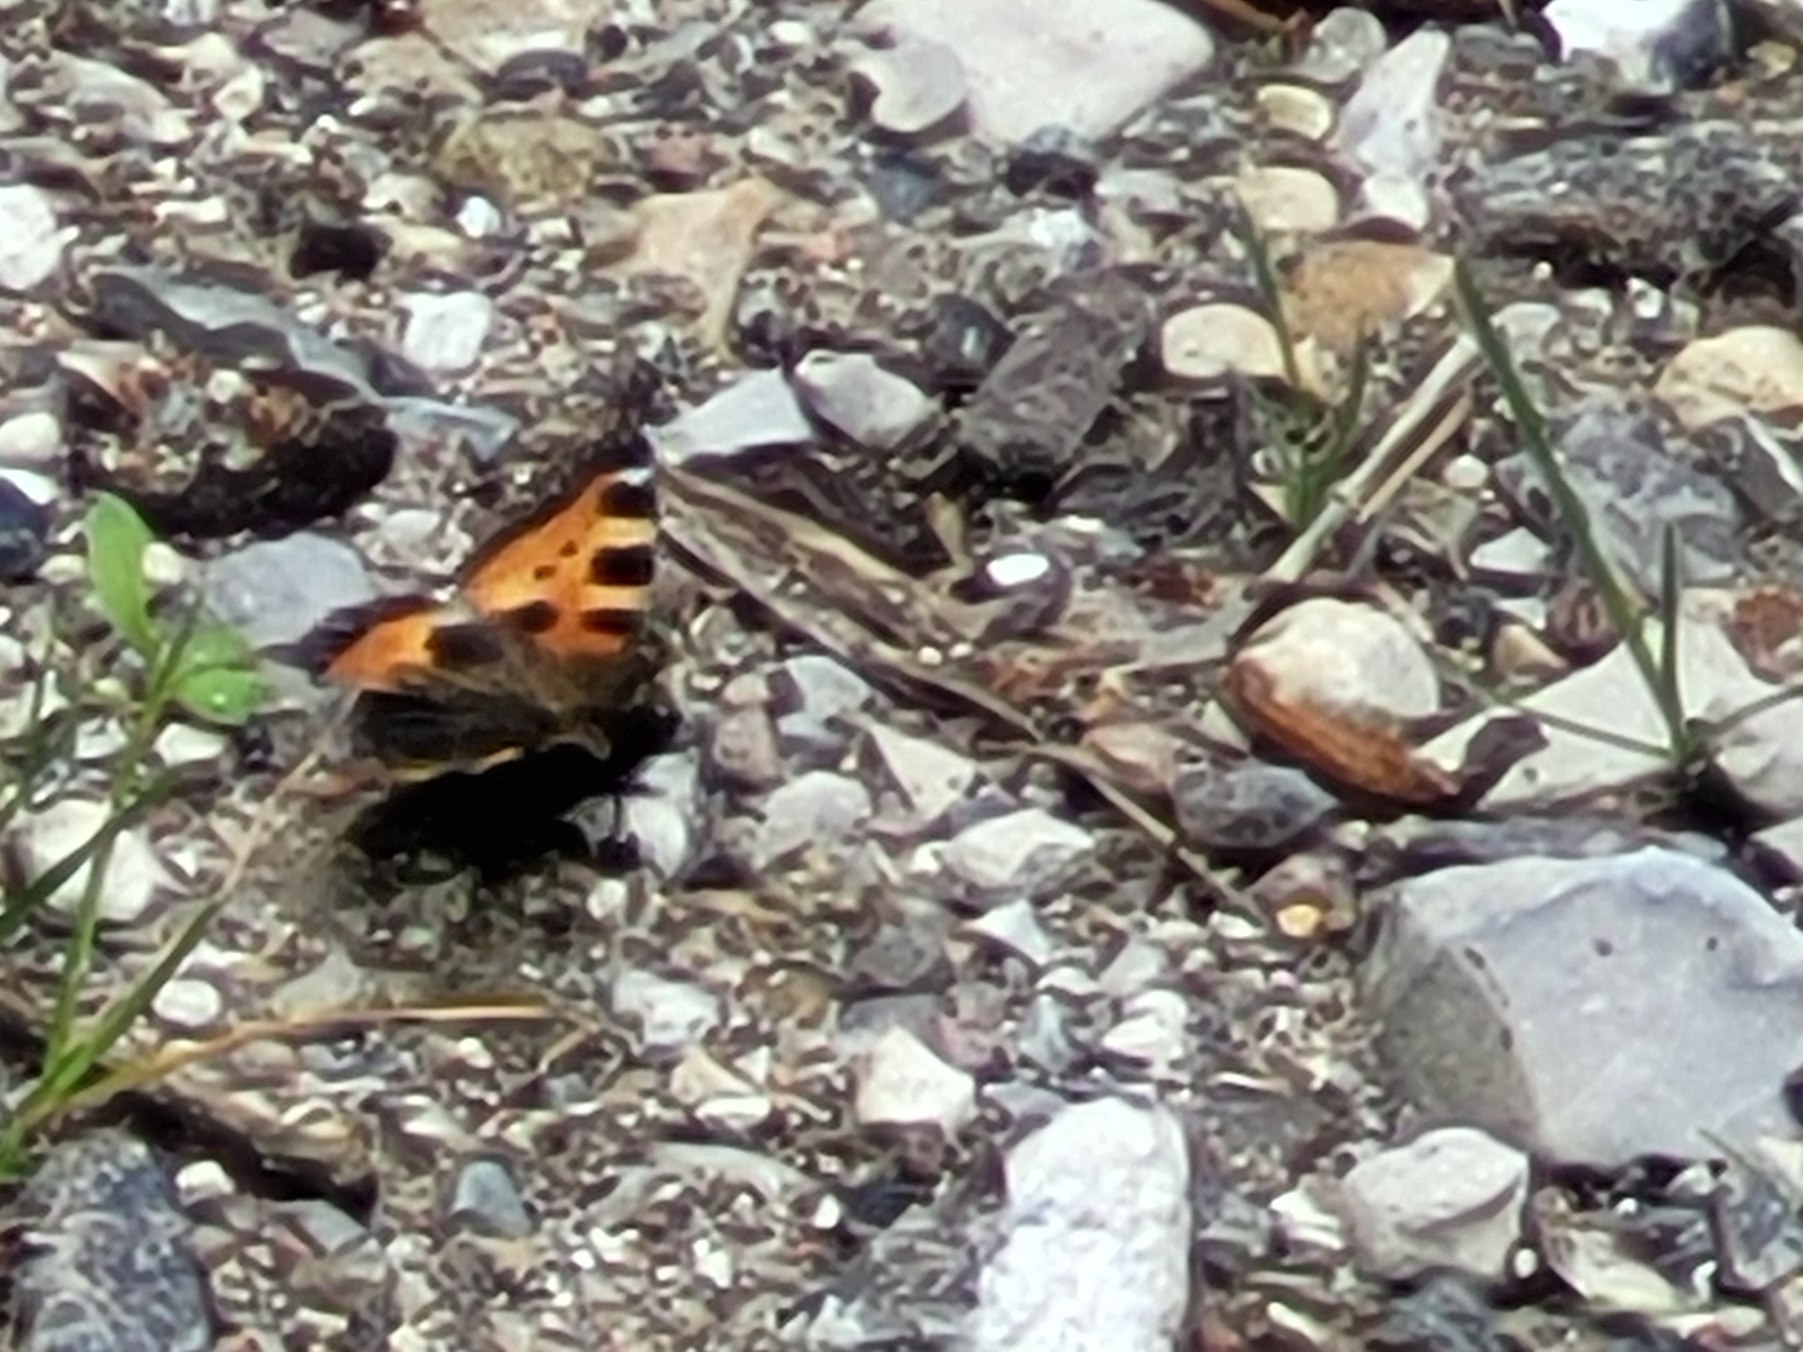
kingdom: Animalia
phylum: Arthropoda
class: Insecta
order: Lepidoptera
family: Nymphalidae
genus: Aglais
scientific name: Aglais urticae
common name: Nældens takvinge
